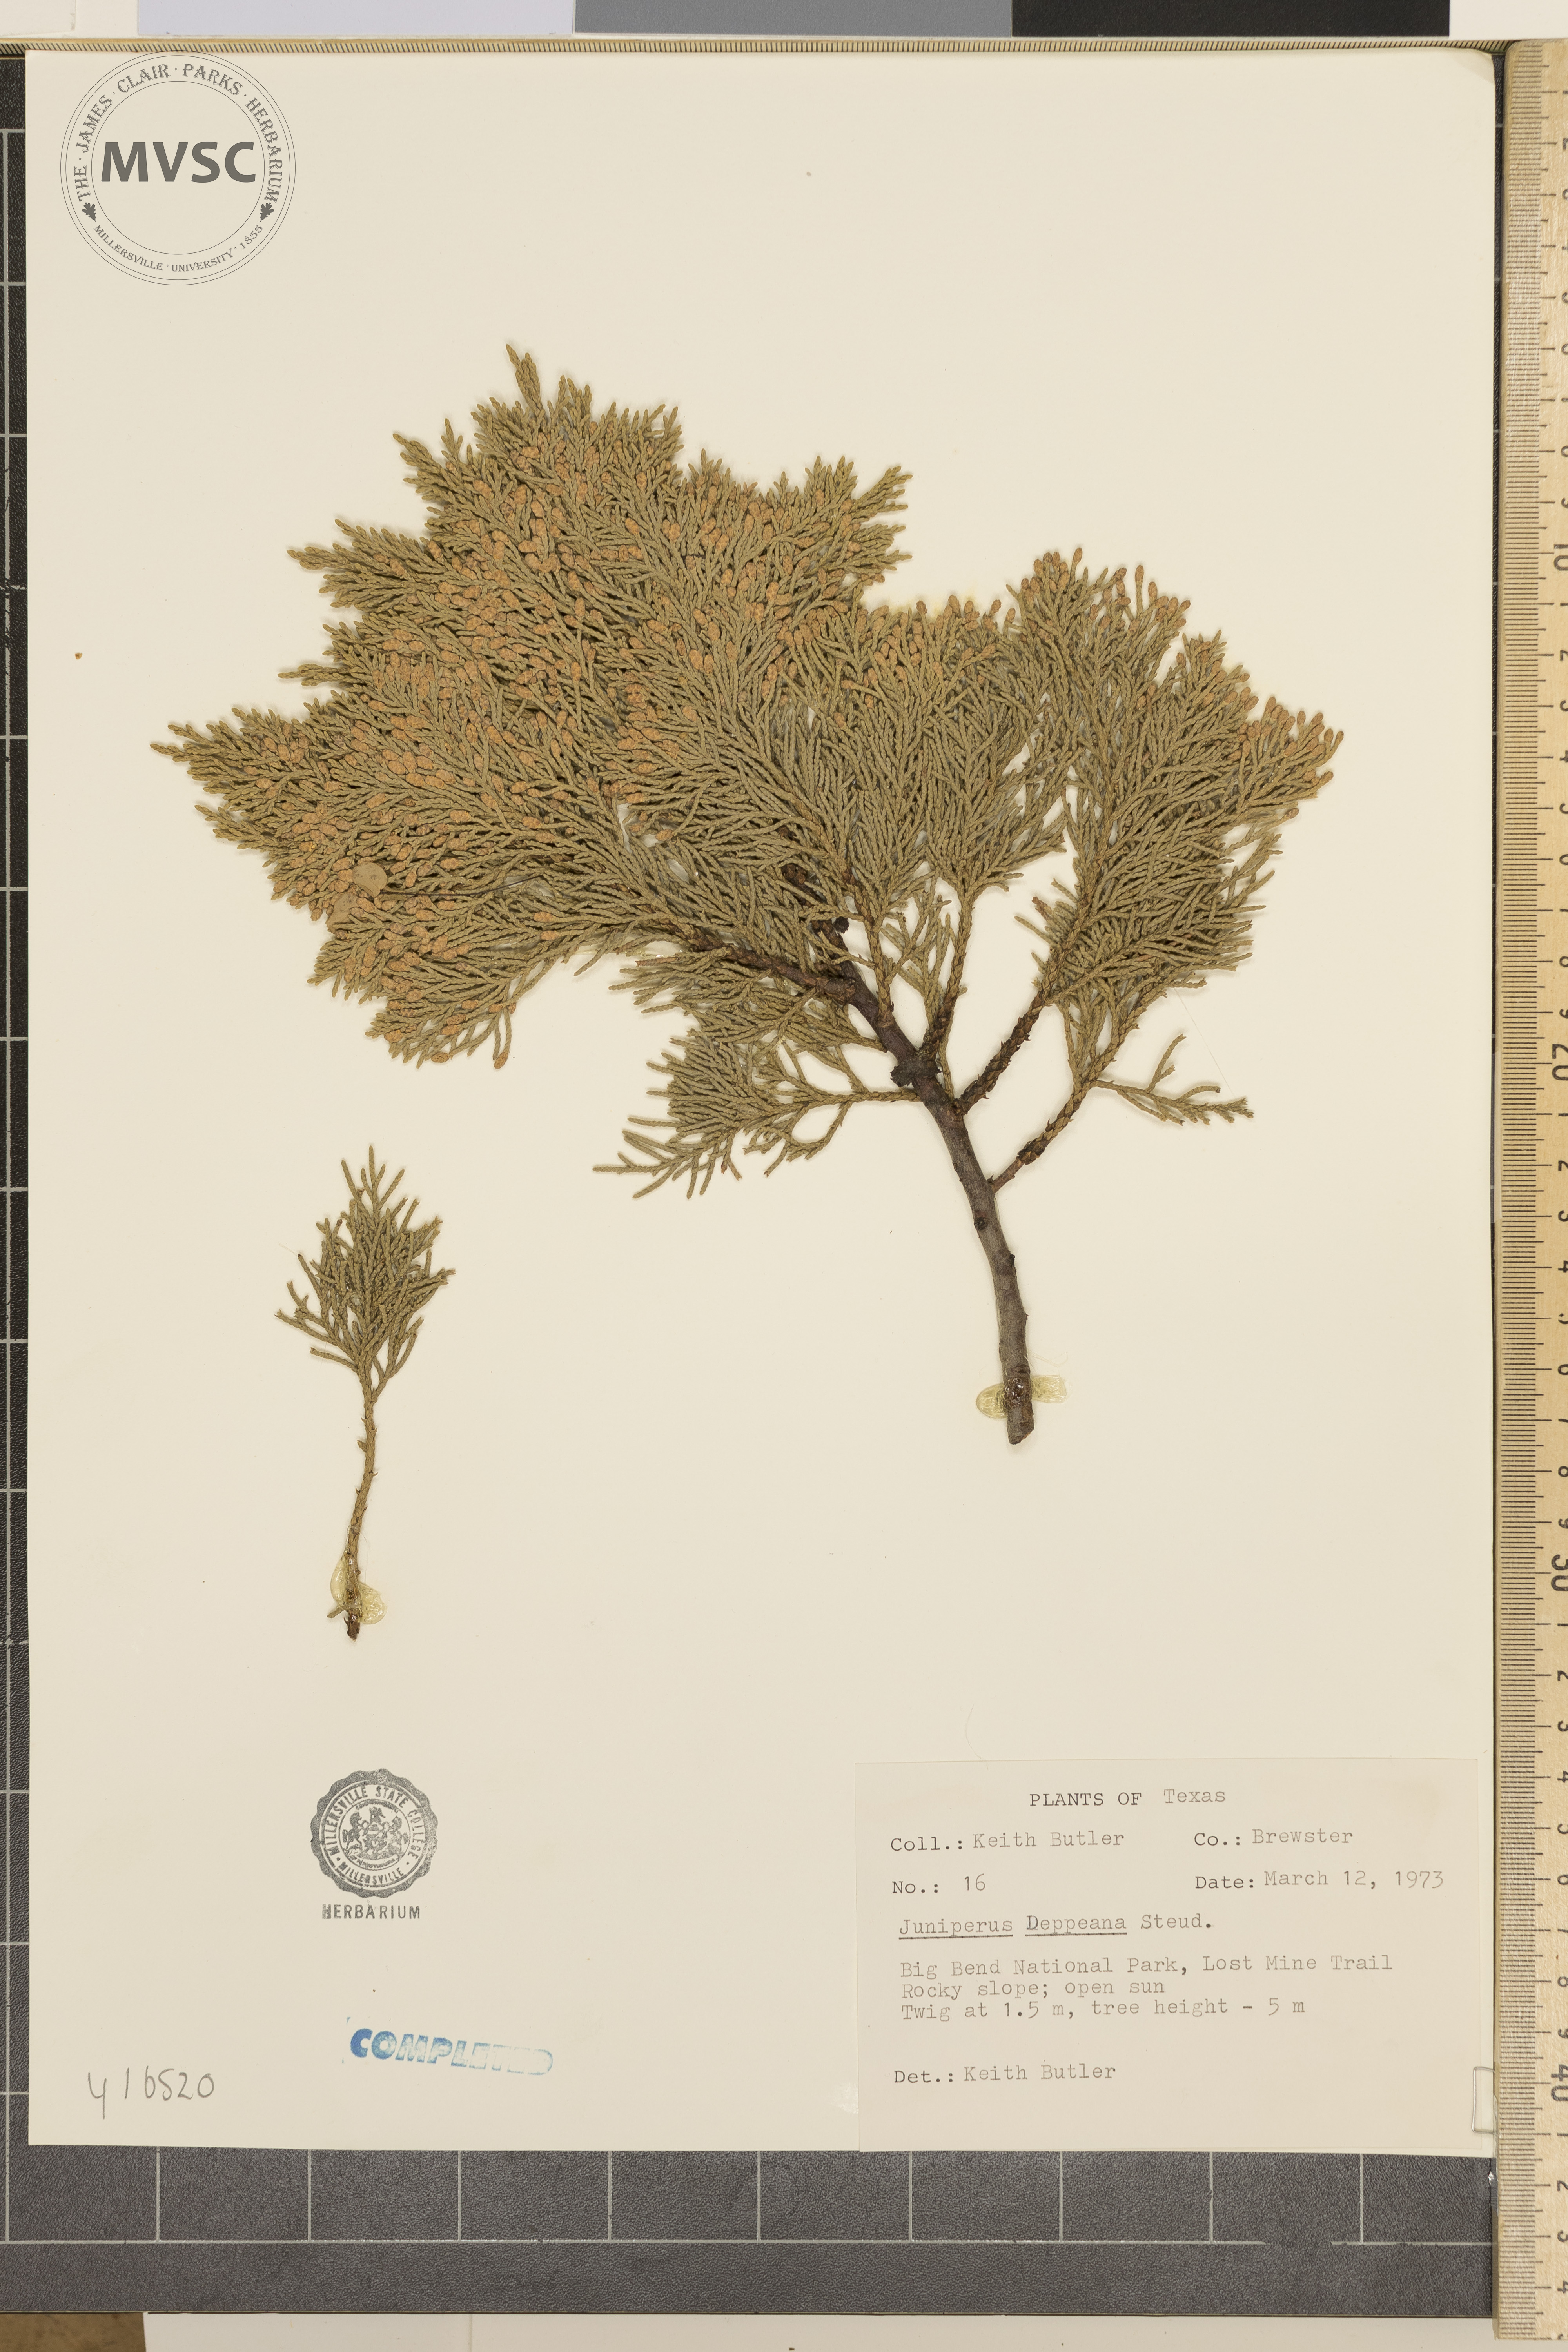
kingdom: Plantae
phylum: Tracheophyta
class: Pinopsida
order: Pinales
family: Cupressaceae
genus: Juniperus
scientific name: Juniperus deppeana
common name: Alligator juniper
